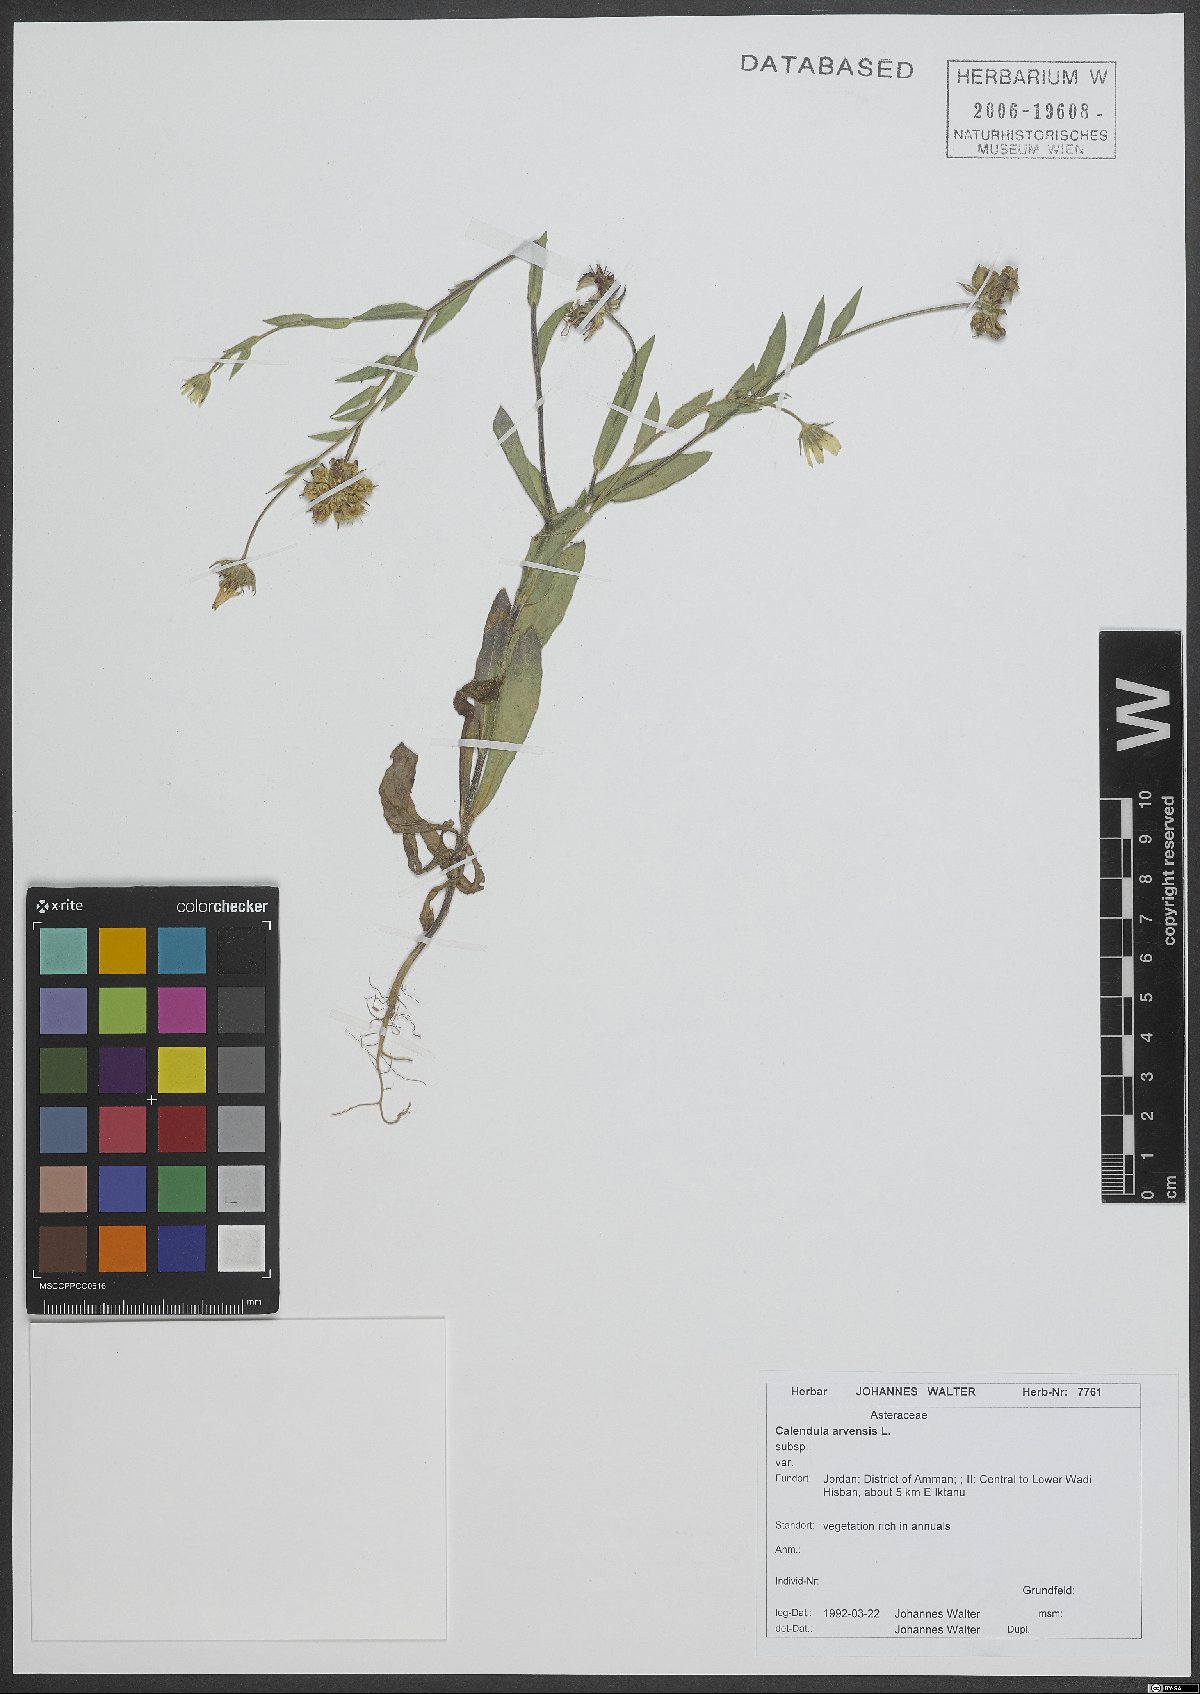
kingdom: Plantae
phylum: Tracheophyta
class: Magnoliopsida
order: Asterales
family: Asteraceae
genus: Calendula
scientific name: Calendula arvensis
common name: Field marigold
